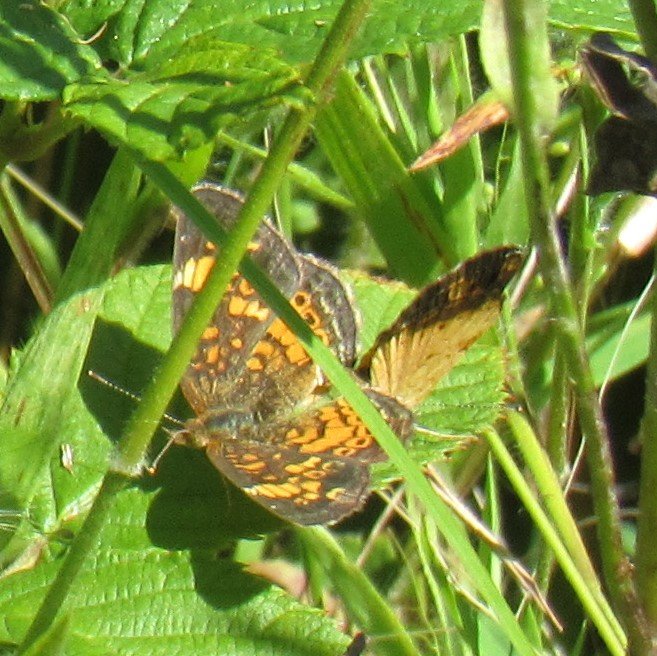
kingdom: Animalia
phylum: Arthropoda
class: Insecta
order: Lepidoptera
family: Nymphalidae
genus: Phyciodes
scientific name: Phyciodes tharos
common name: Pearl Crescent
